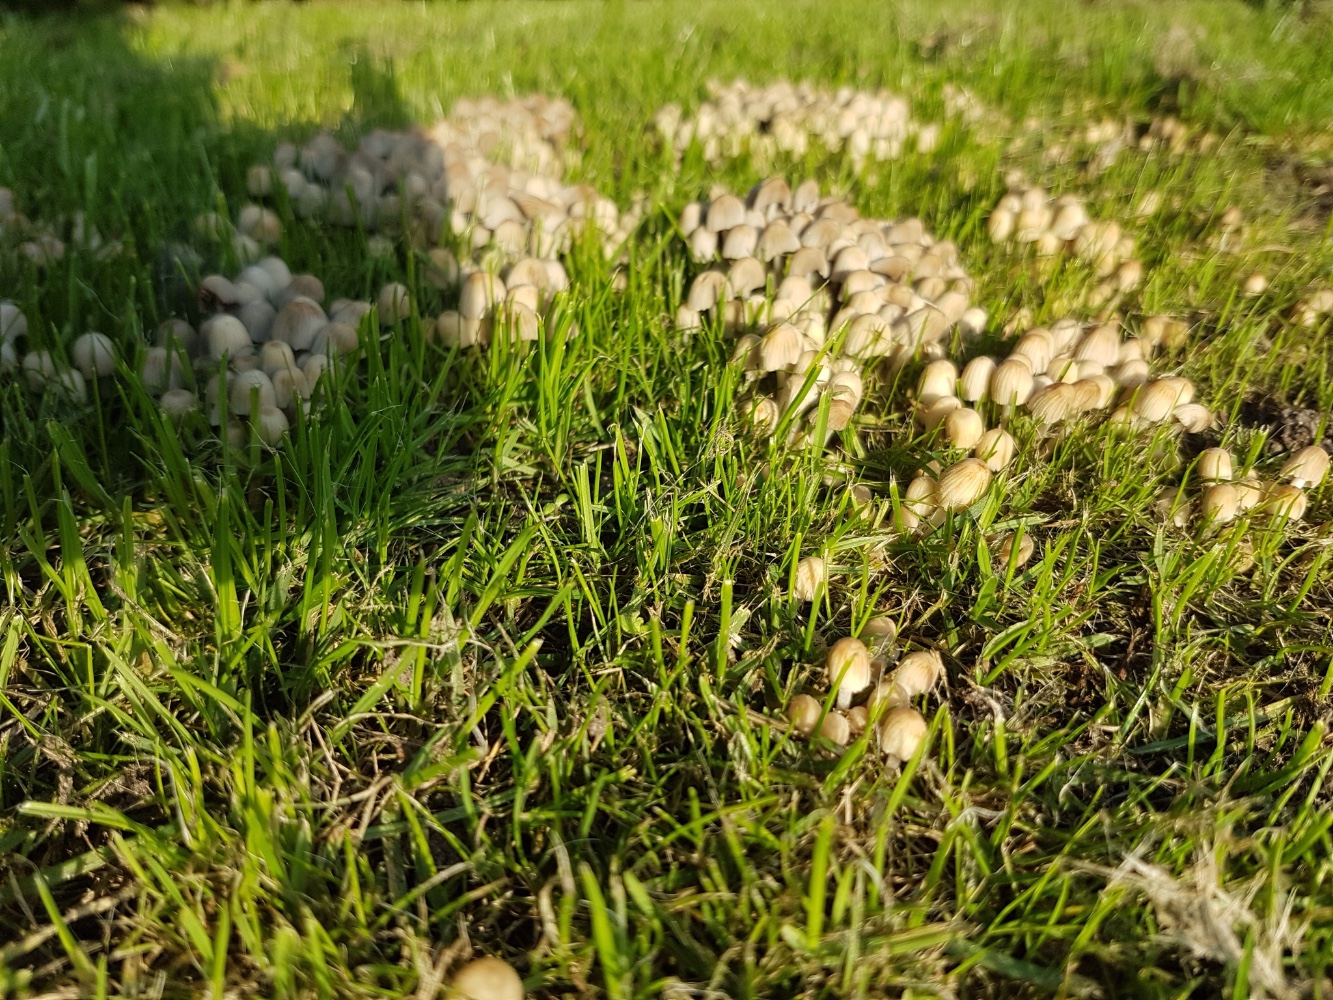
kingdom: Fungi
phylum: Basidiomycota
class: Agaricomycetes
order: Agaricales
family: Psathyrellaceae
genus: Coprinellus
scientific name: Coprinellus disseminatus
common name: bredsået blækhat
